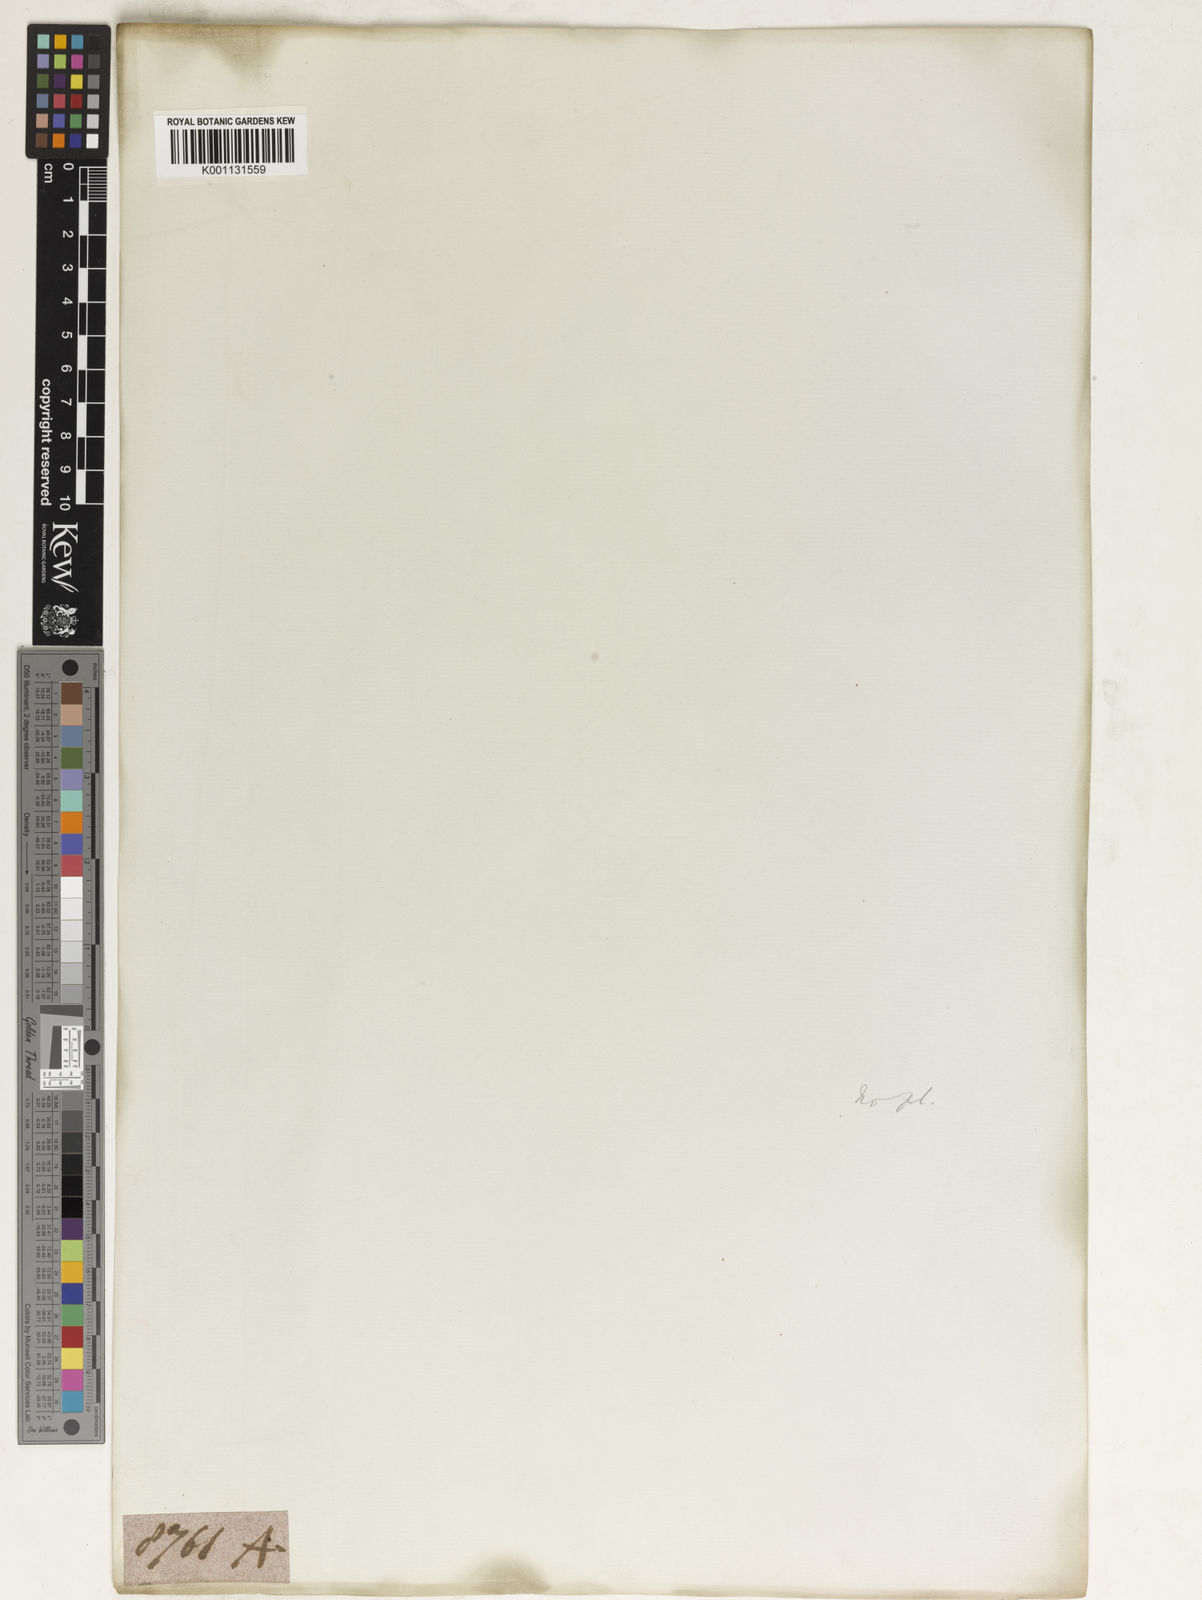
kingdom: Plantae
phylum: Tracheophyta
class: Liliopsida
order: Poales
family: Poaceae
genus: Apluda
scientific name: Apluda
